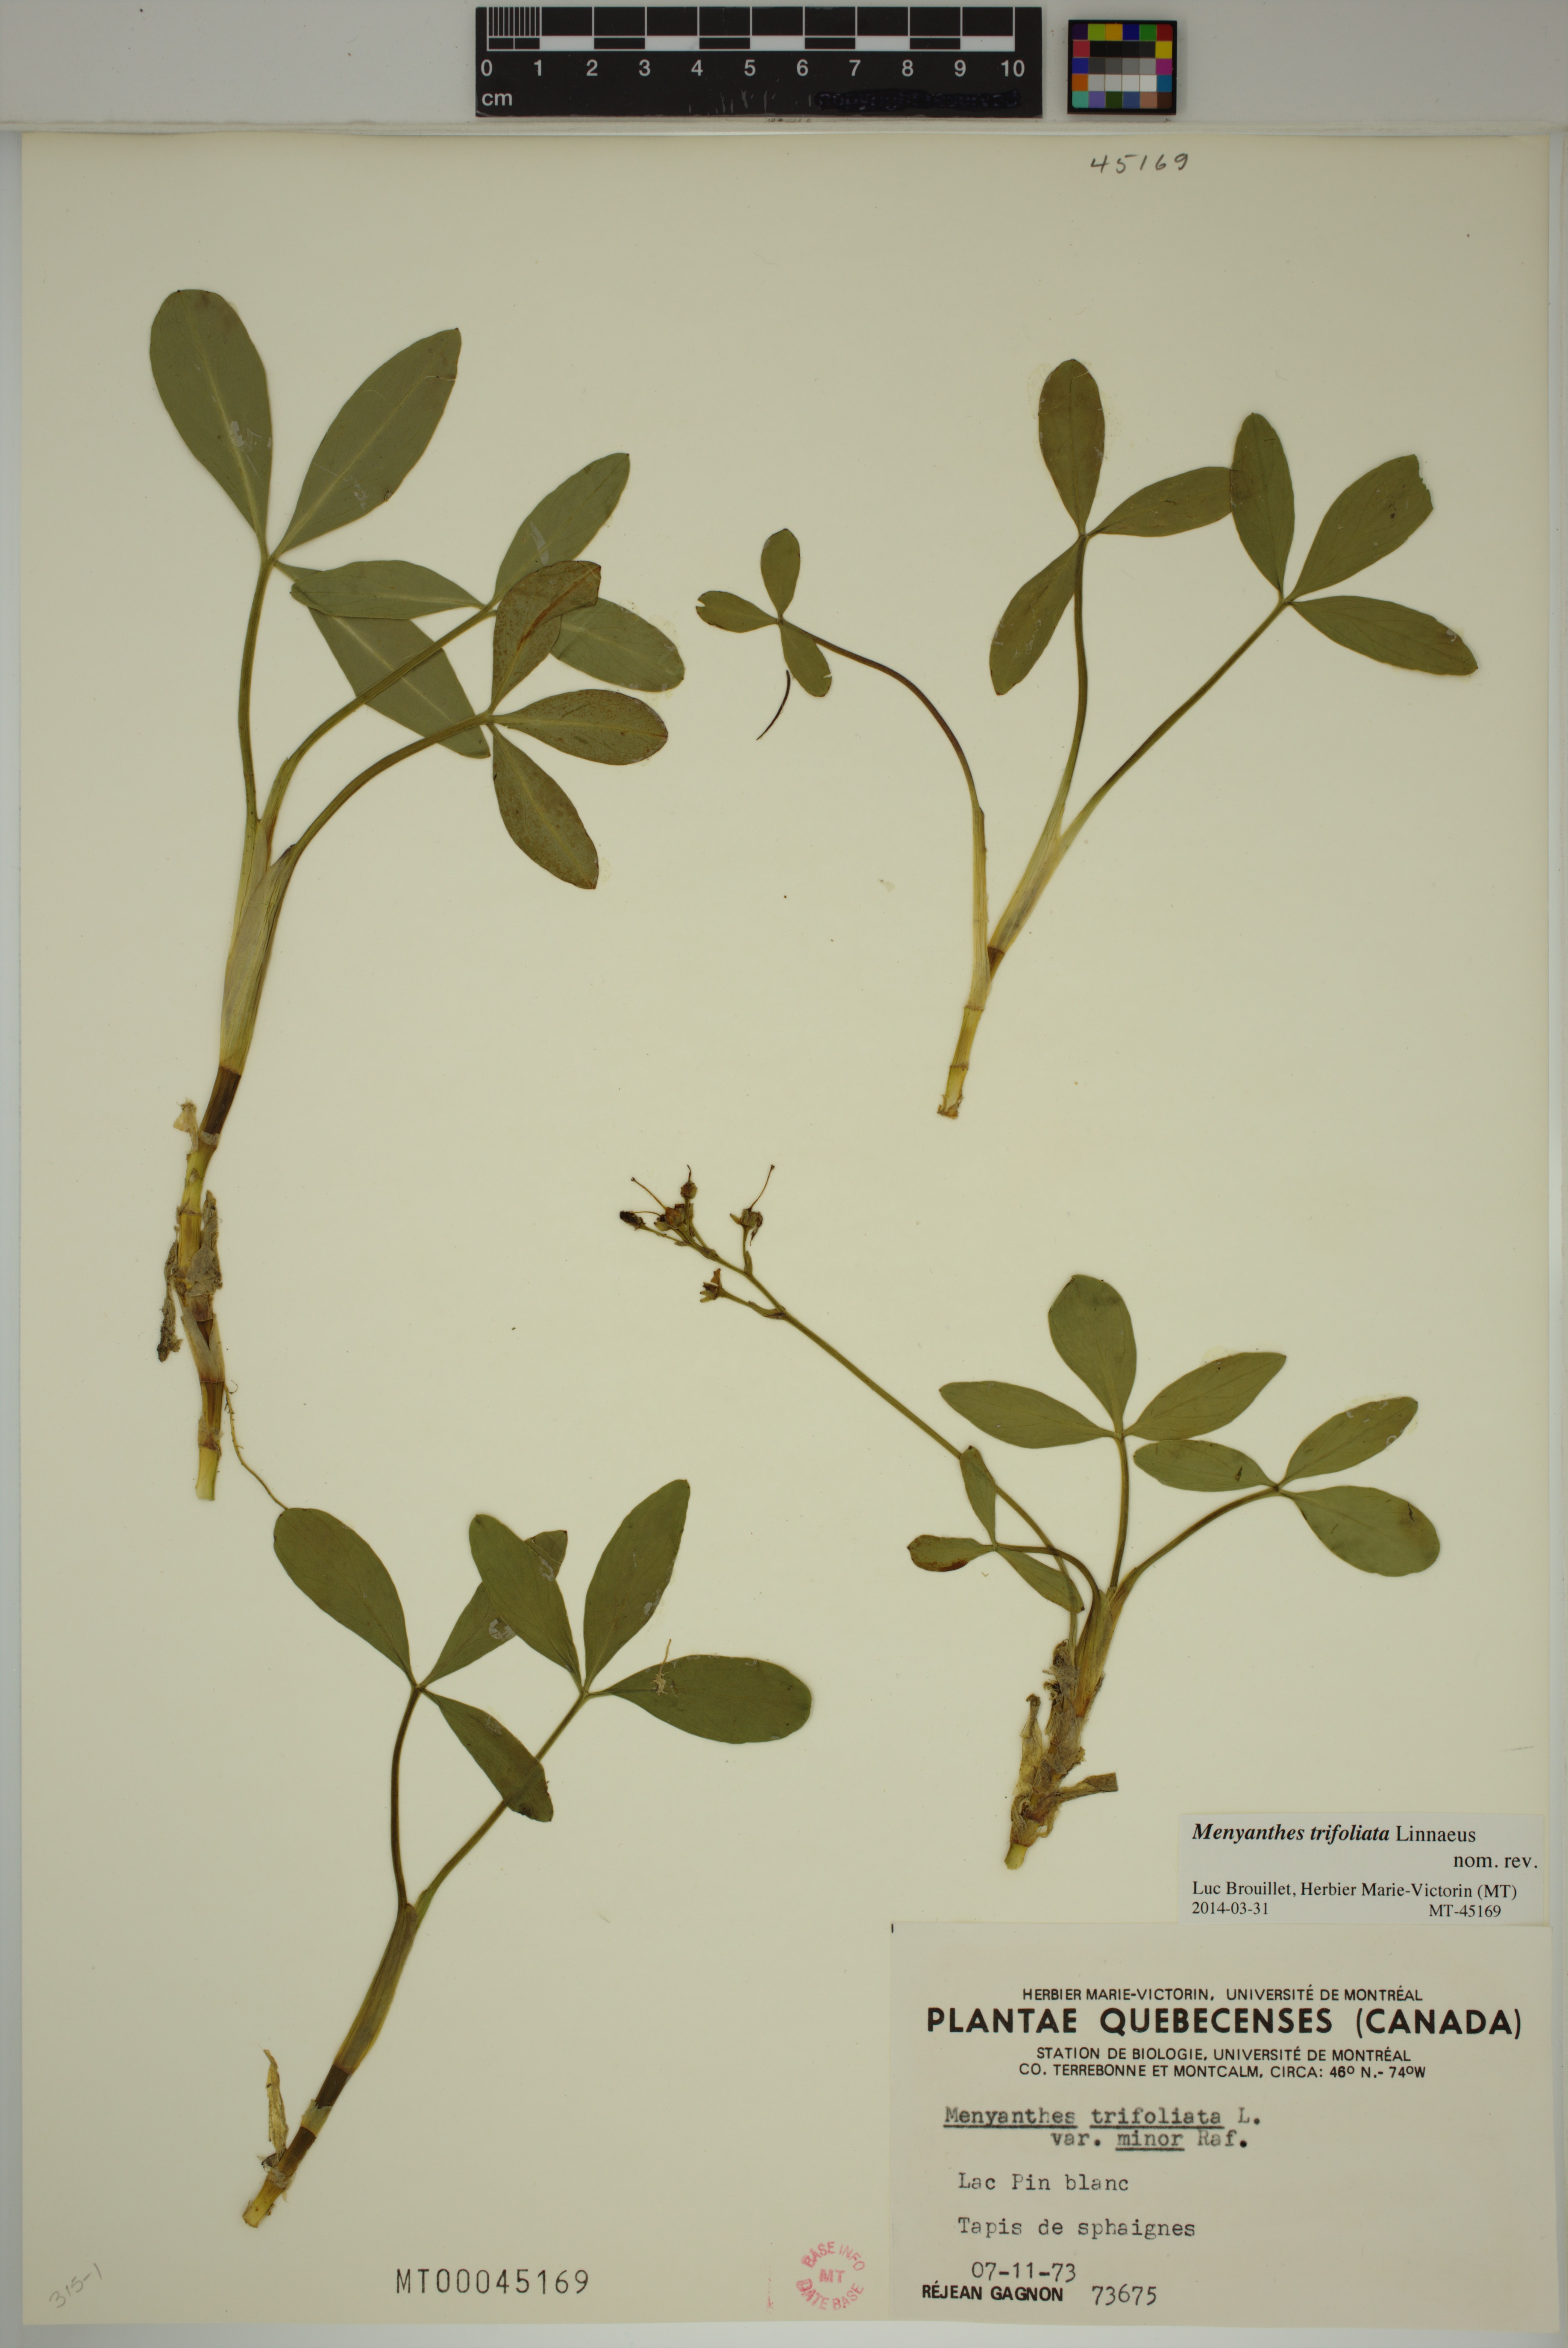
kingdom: Plantae
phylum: Tracheophyta
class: Magnoliopsida
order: Asterales
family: Menyanthaceae
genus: Menyanthes
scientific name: Menyanthes trifoliata
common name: Bogbean
